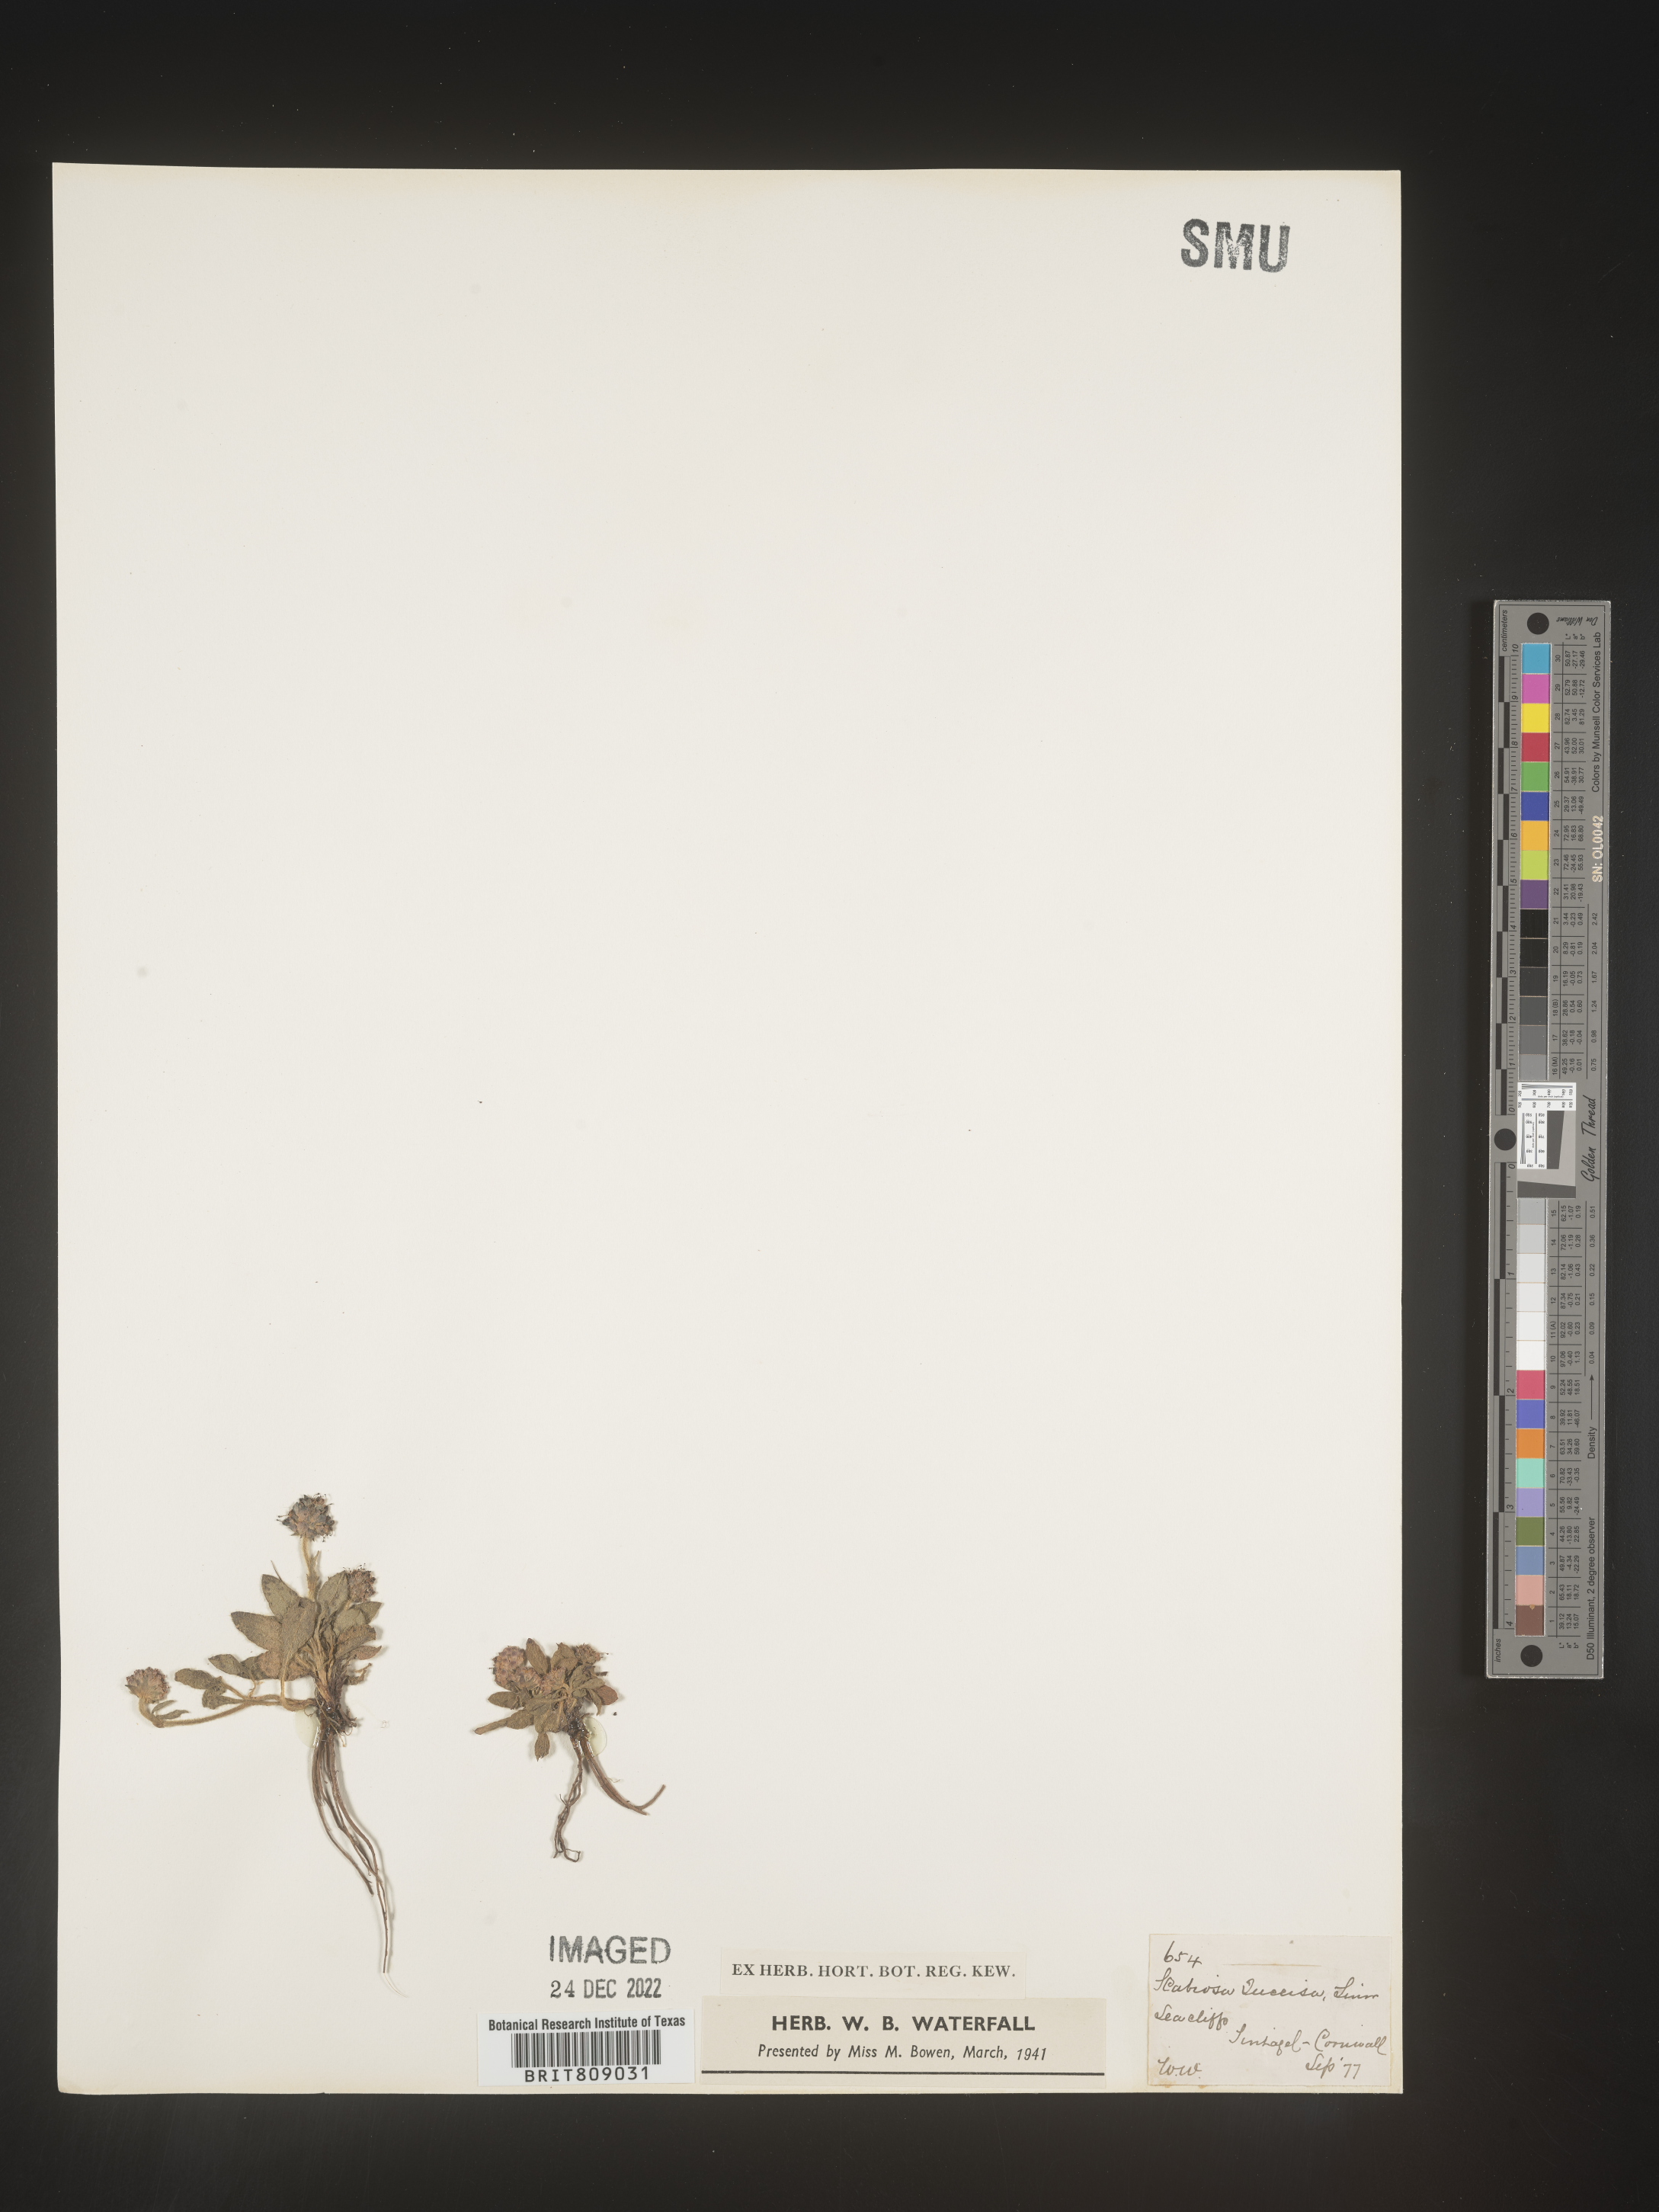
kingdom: Plantae
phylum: Tracheophyta
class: Magnoliopsida
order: Dipsacales
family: Caprifoliaceae
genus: Succisa
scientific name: Succisa
